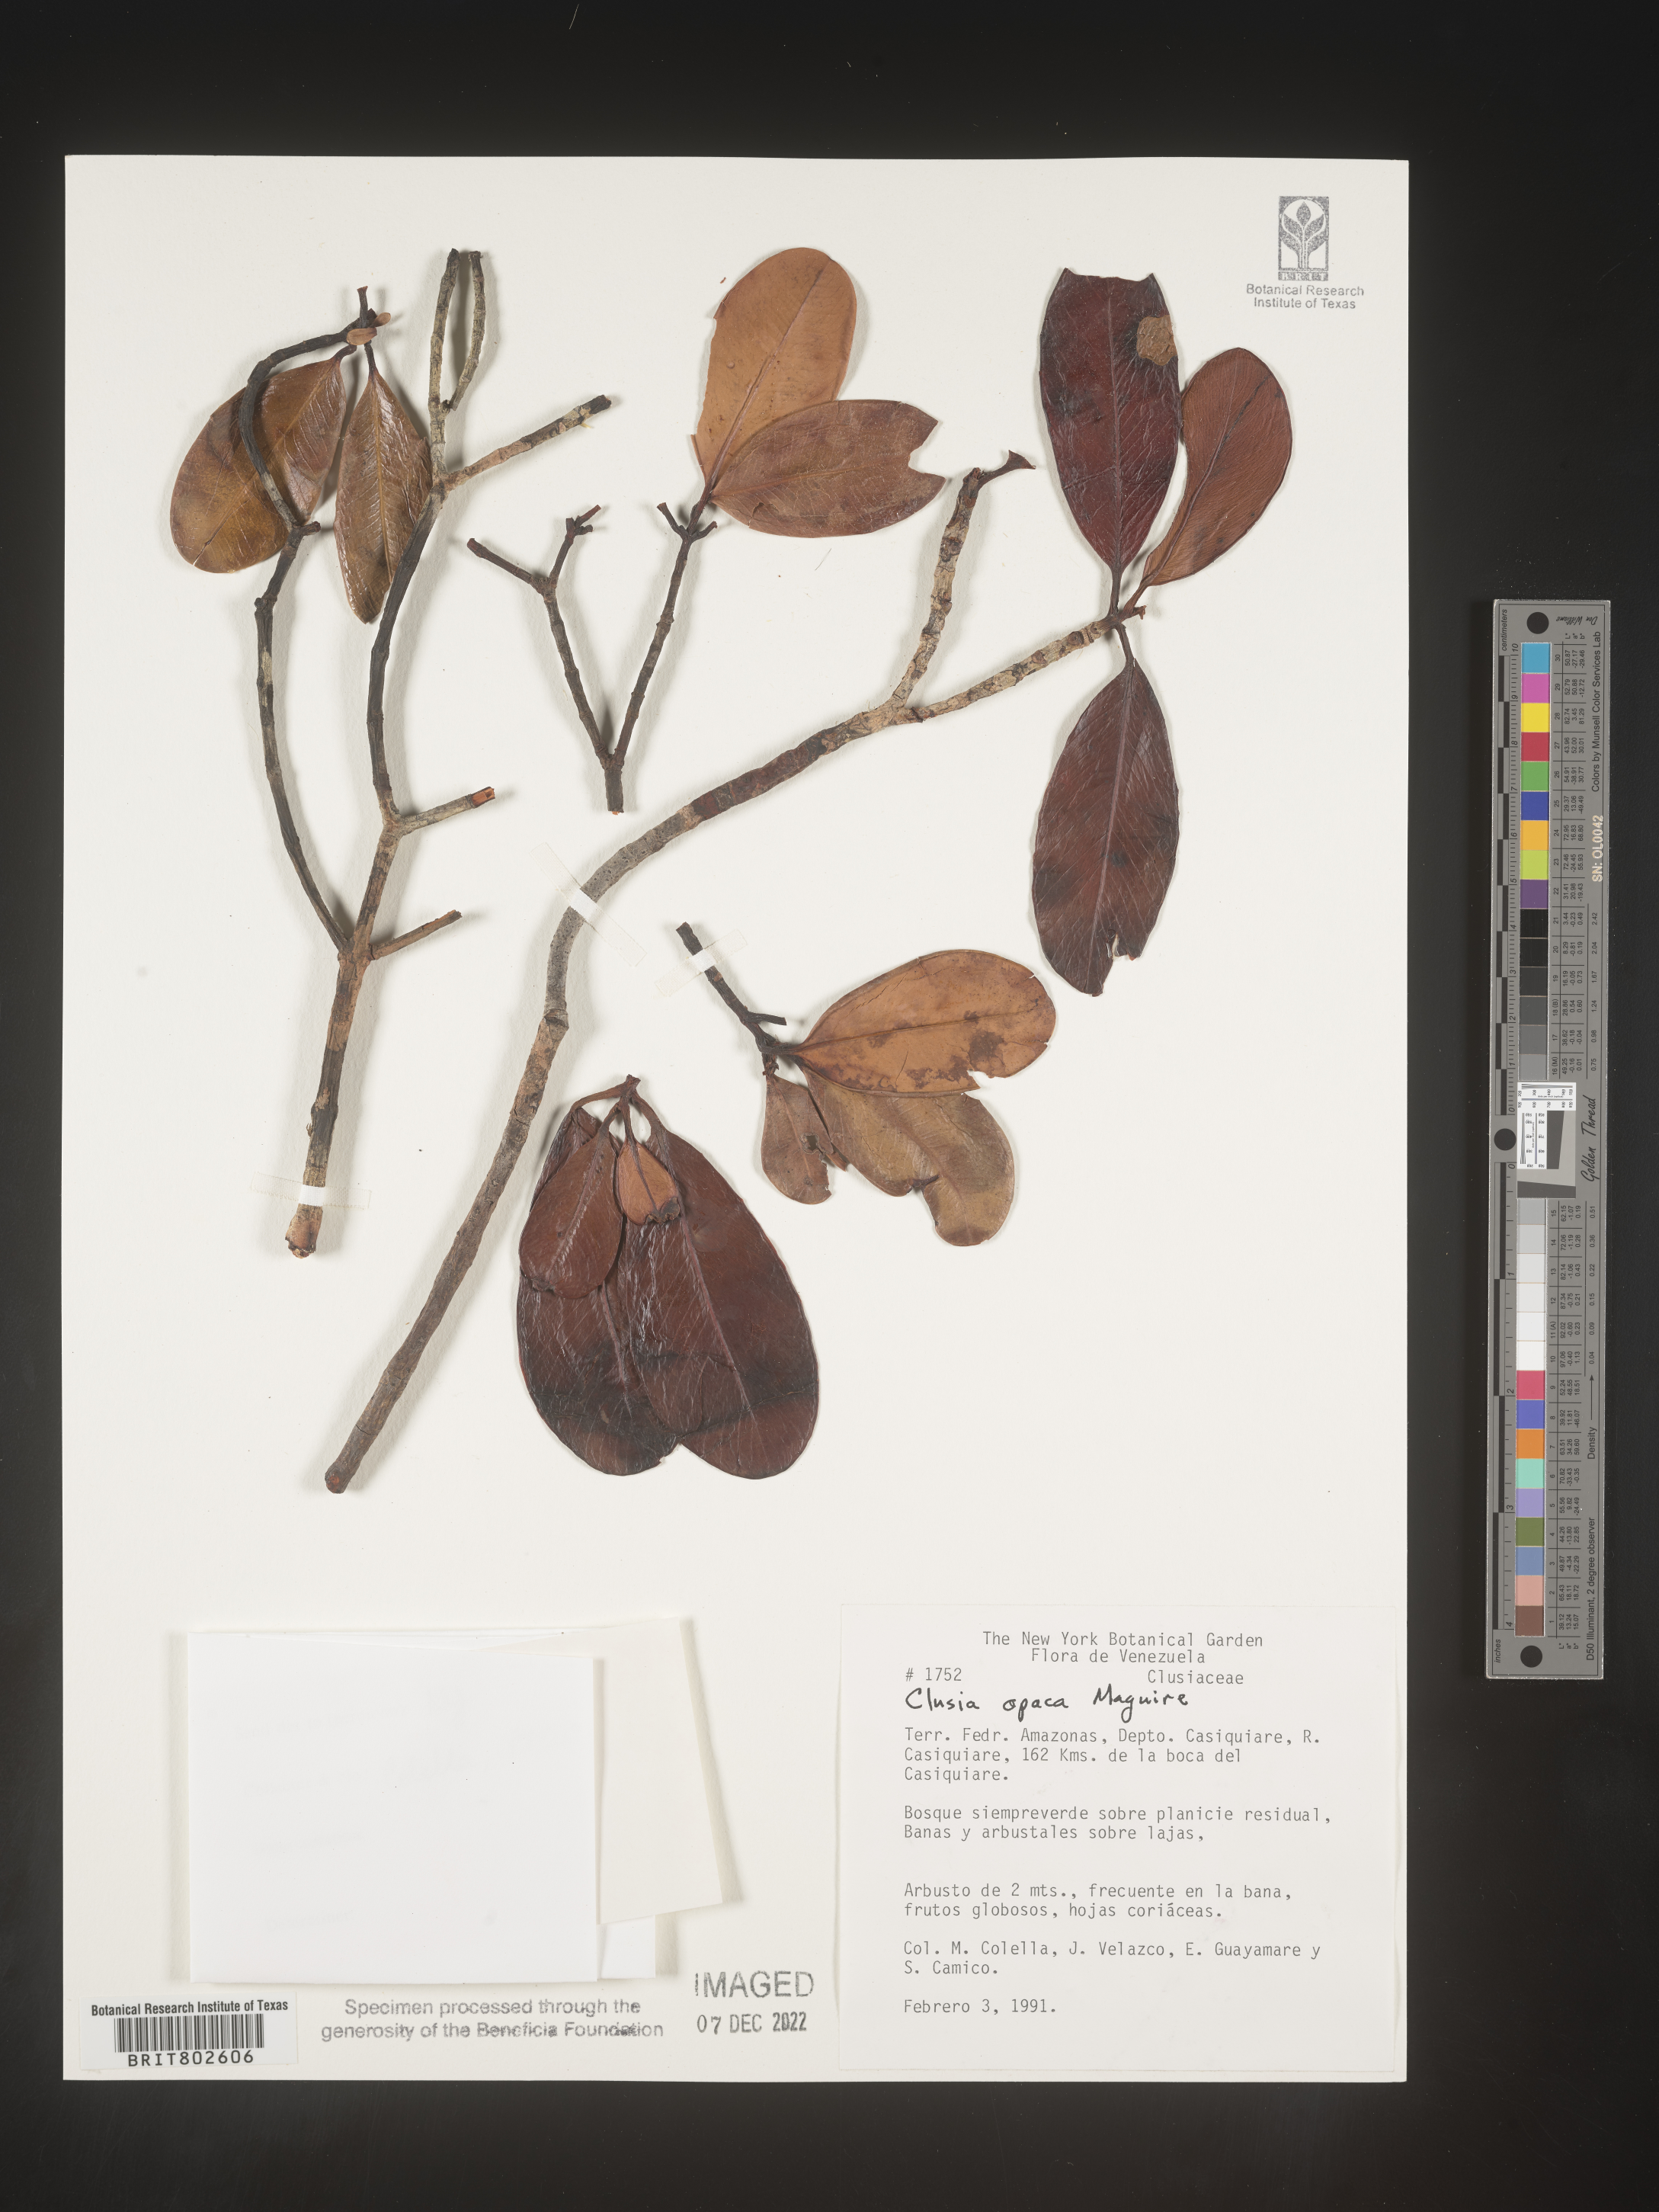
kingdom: Plantae
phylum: Tracheophyta
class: Magnoliopsida
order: Malpighiales
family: Clusiaceae
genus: Clusia
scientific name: Clusia
